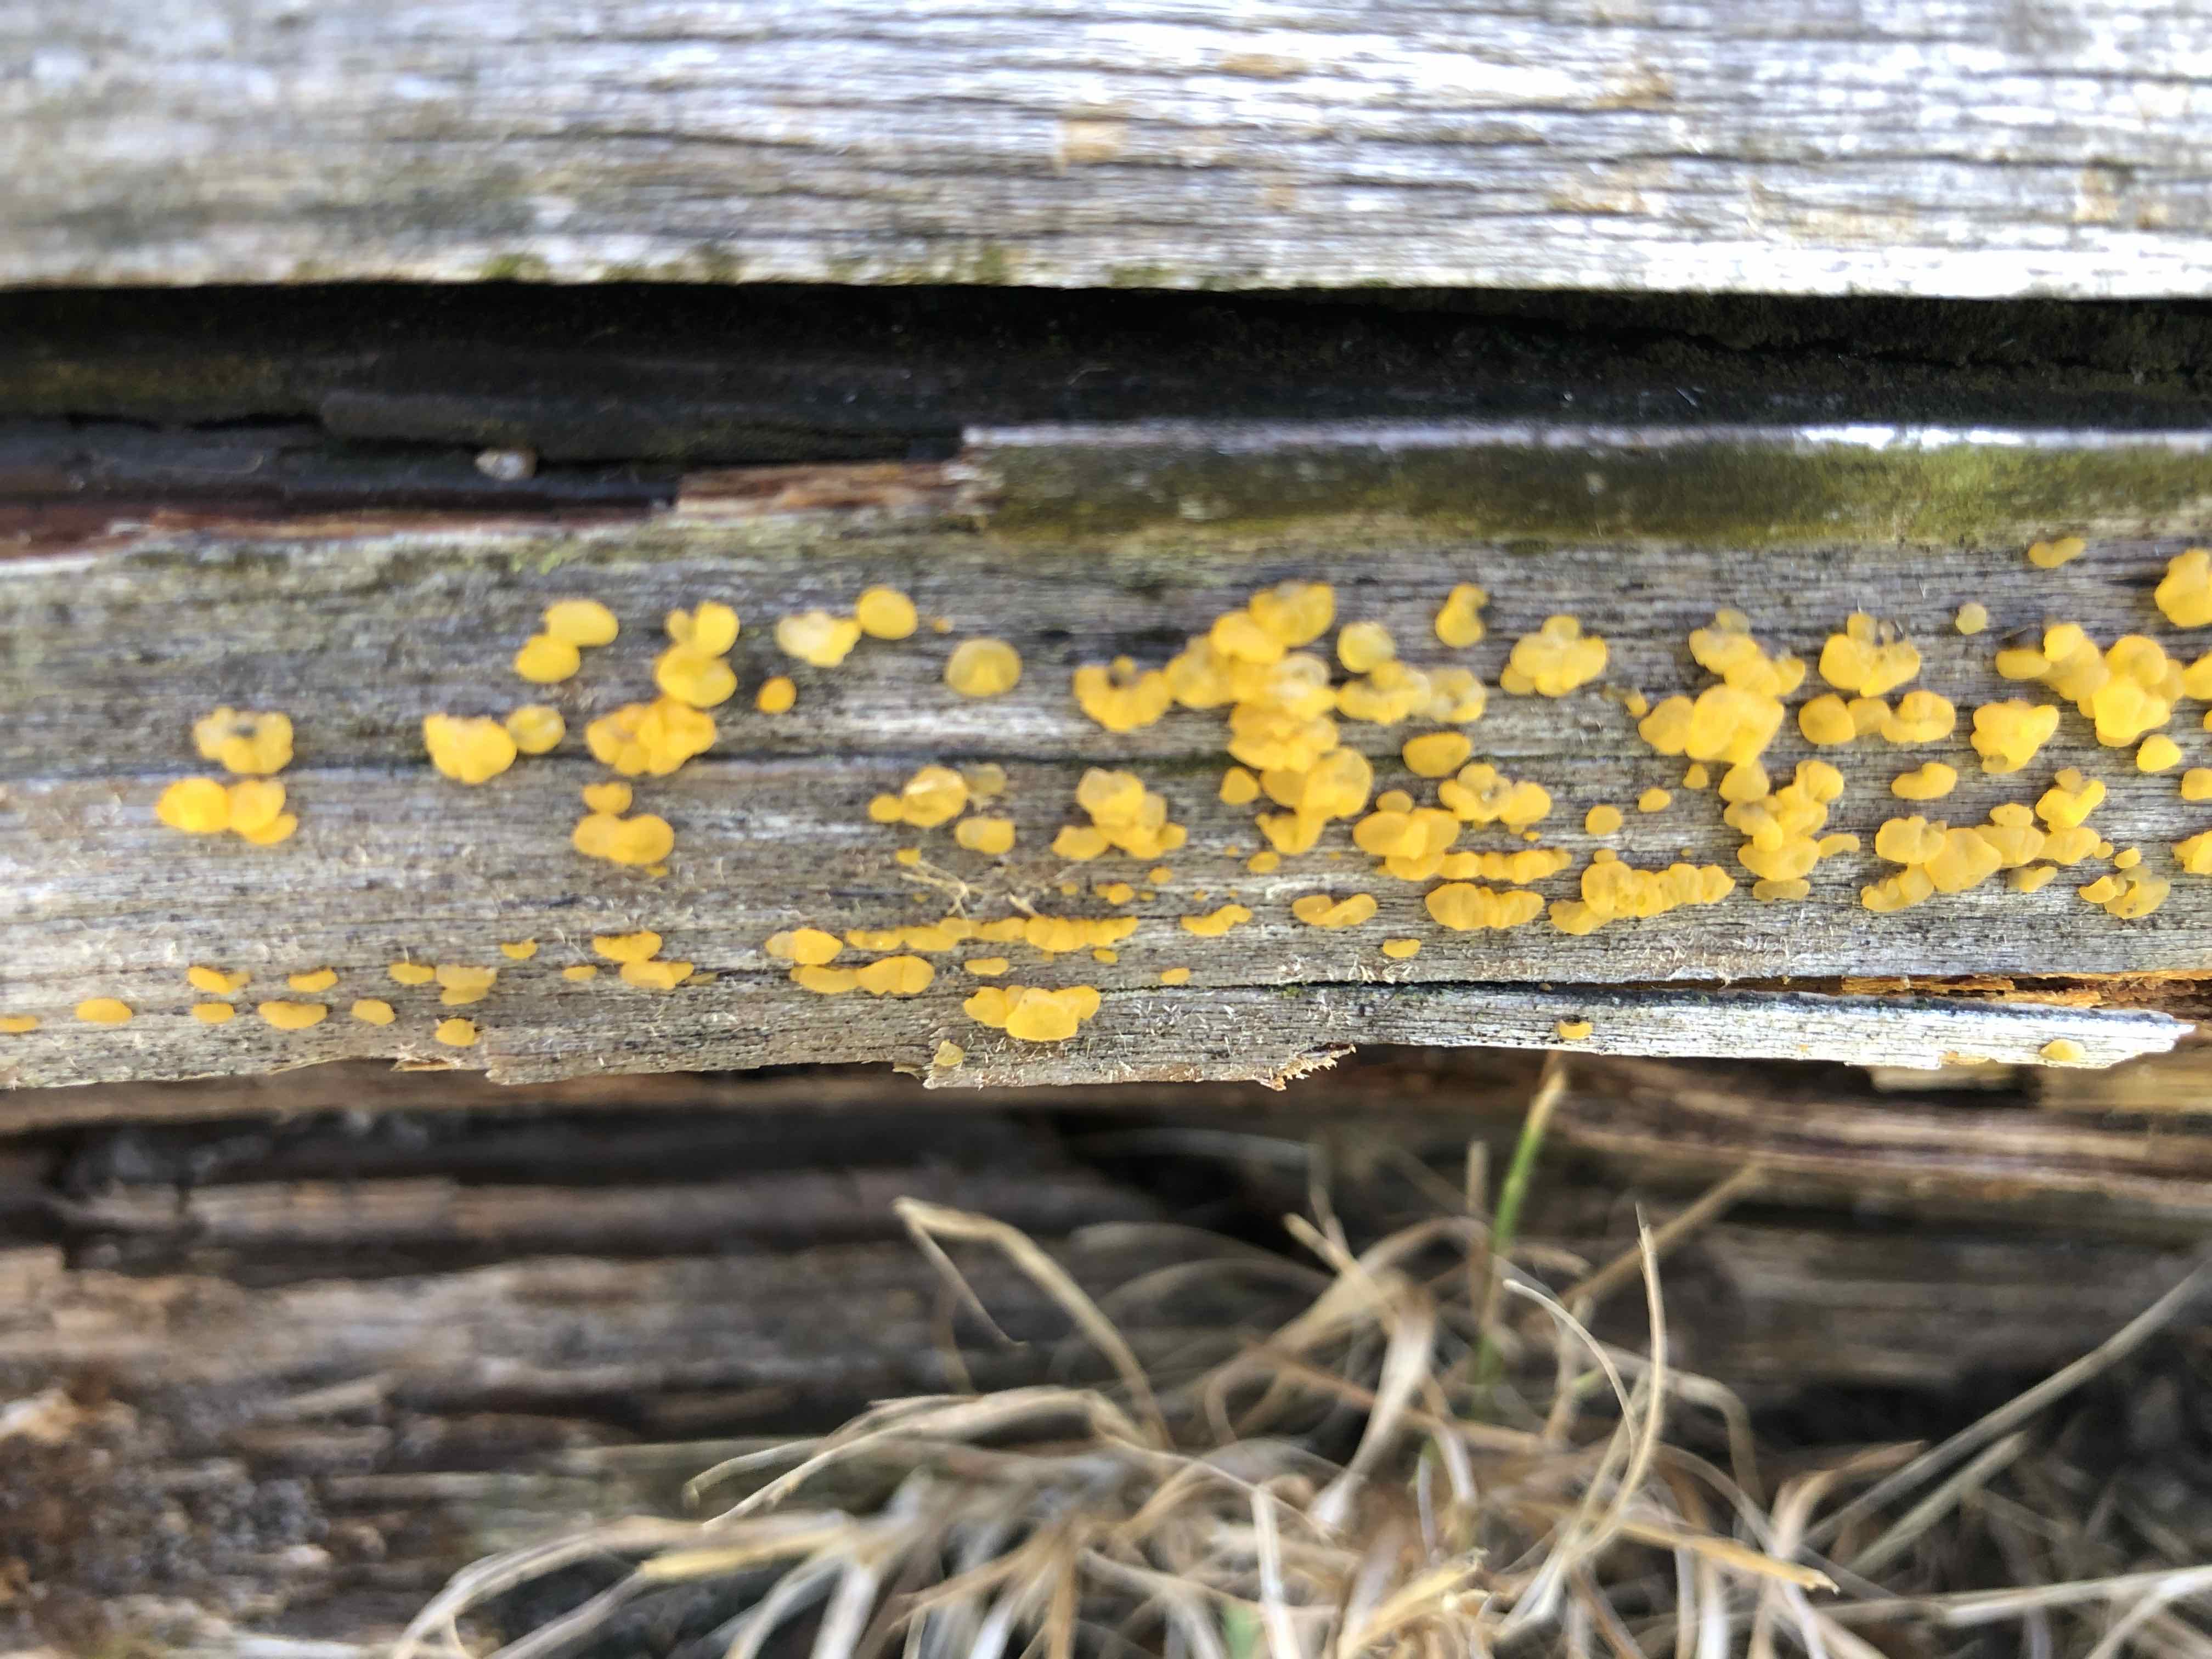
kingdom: Fungi
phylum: Basidiomycota
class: Dacrymycetes
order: Dacrymycetales
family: Dacrymycetaceae
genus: Dacrymyces
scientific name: Dacrymyces
